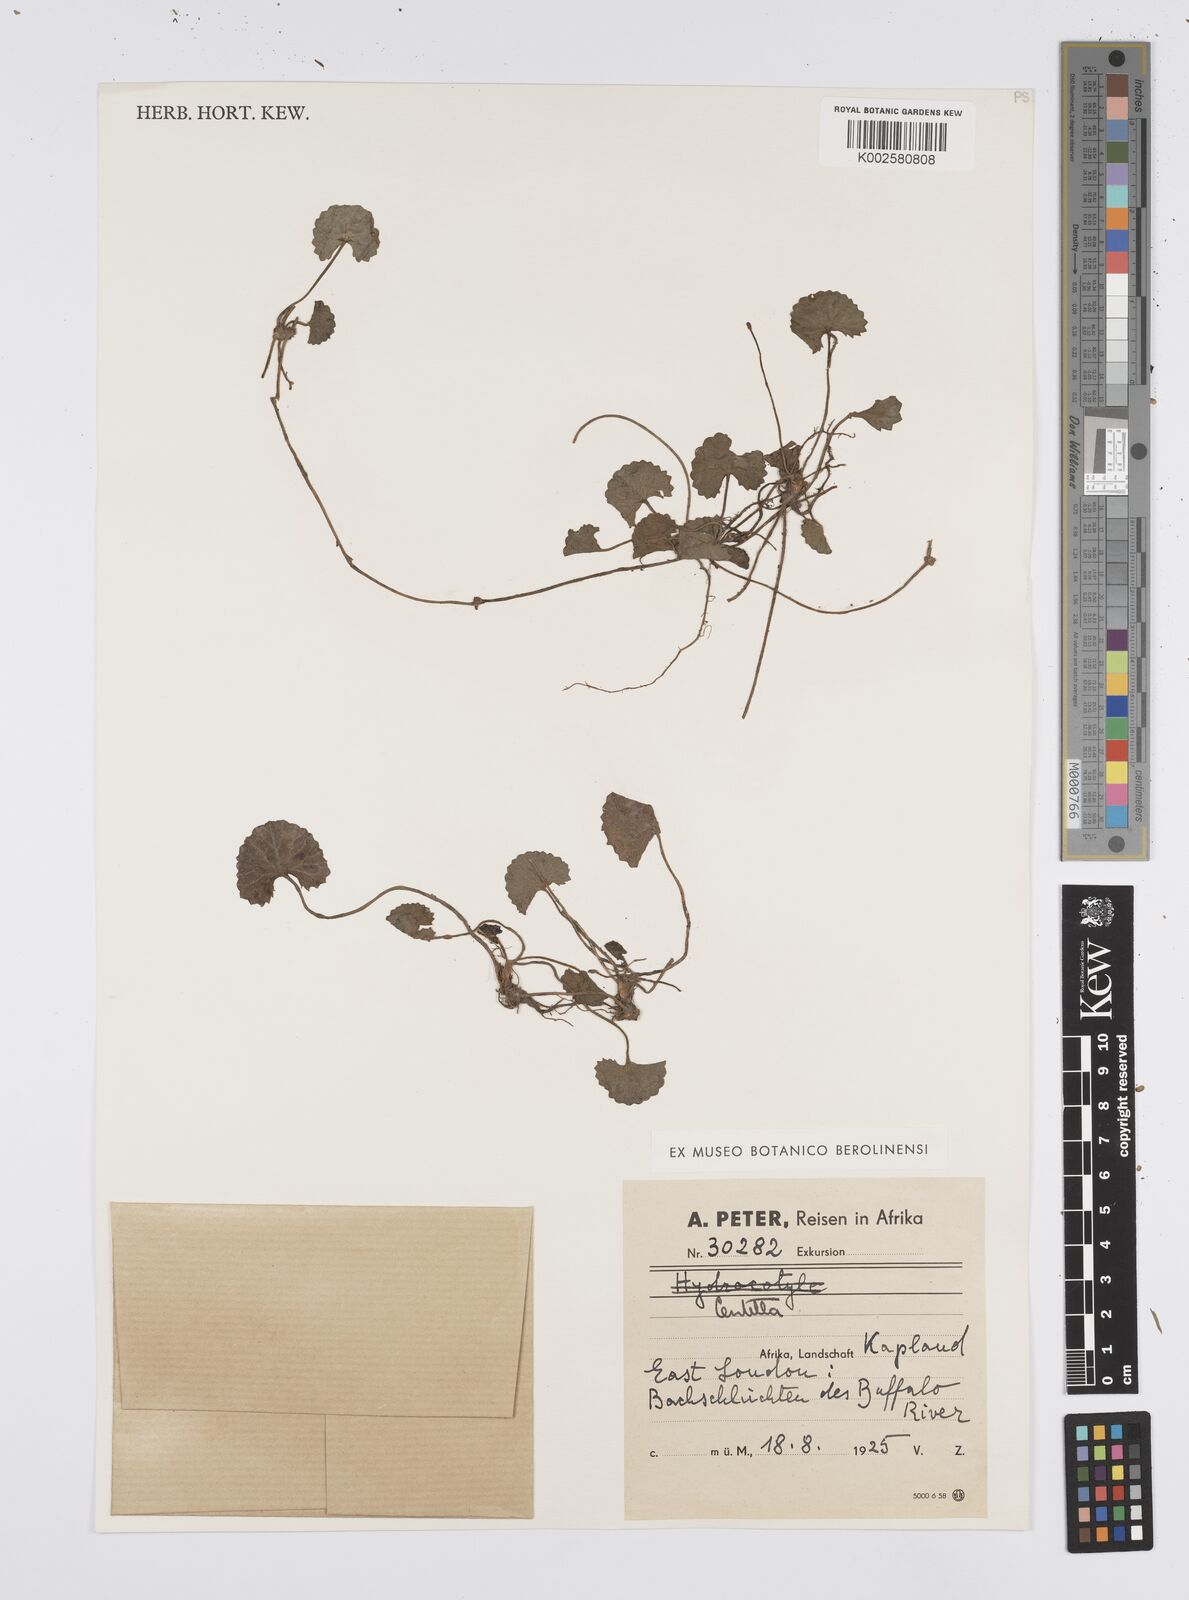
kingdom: Plantae
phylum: Tracheophyta
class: Magnoliopsida
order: Apiales
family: Apiaceae
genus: Centella
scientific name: Centella coriacea
